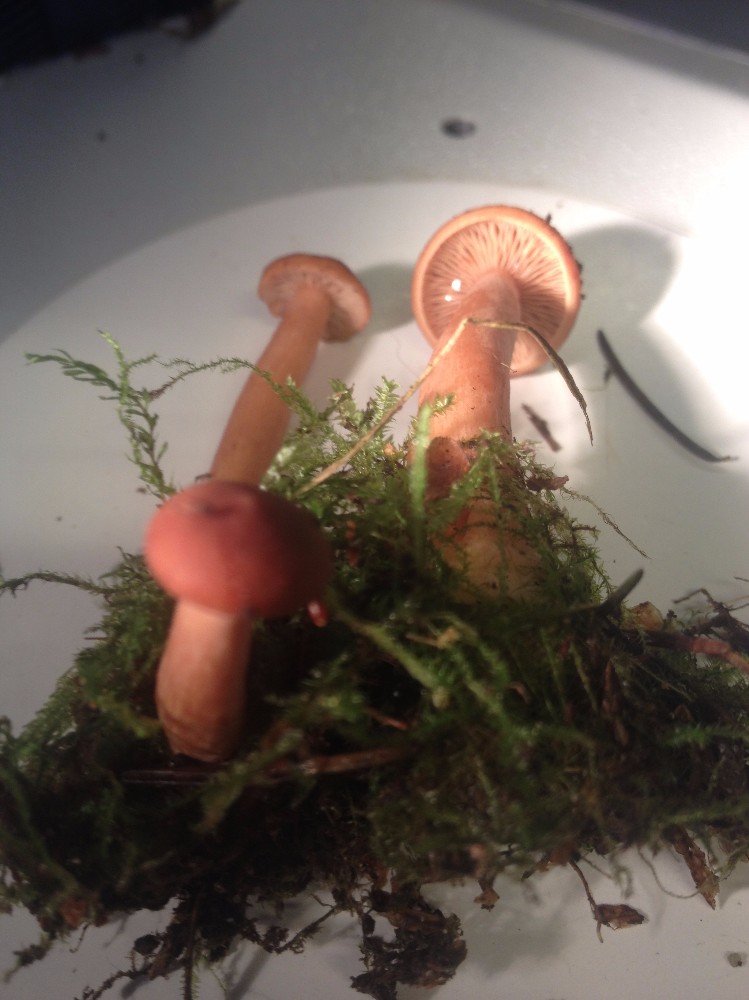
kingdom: Fungi
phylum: Basidiomycota
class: Agaricomycetes
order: Russulales
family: Russulaceae
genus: Lactarius
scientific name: Lactarius rufus
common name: rødbrun mælkehat
